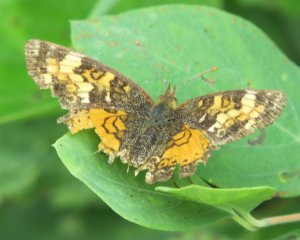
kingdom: Animalia
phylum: Arthropoda
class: Insecta
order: Lepidoptera
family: Nymphalidae
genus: Phyciodes
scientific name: Phyciodes tharos
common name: Northern Crescent
